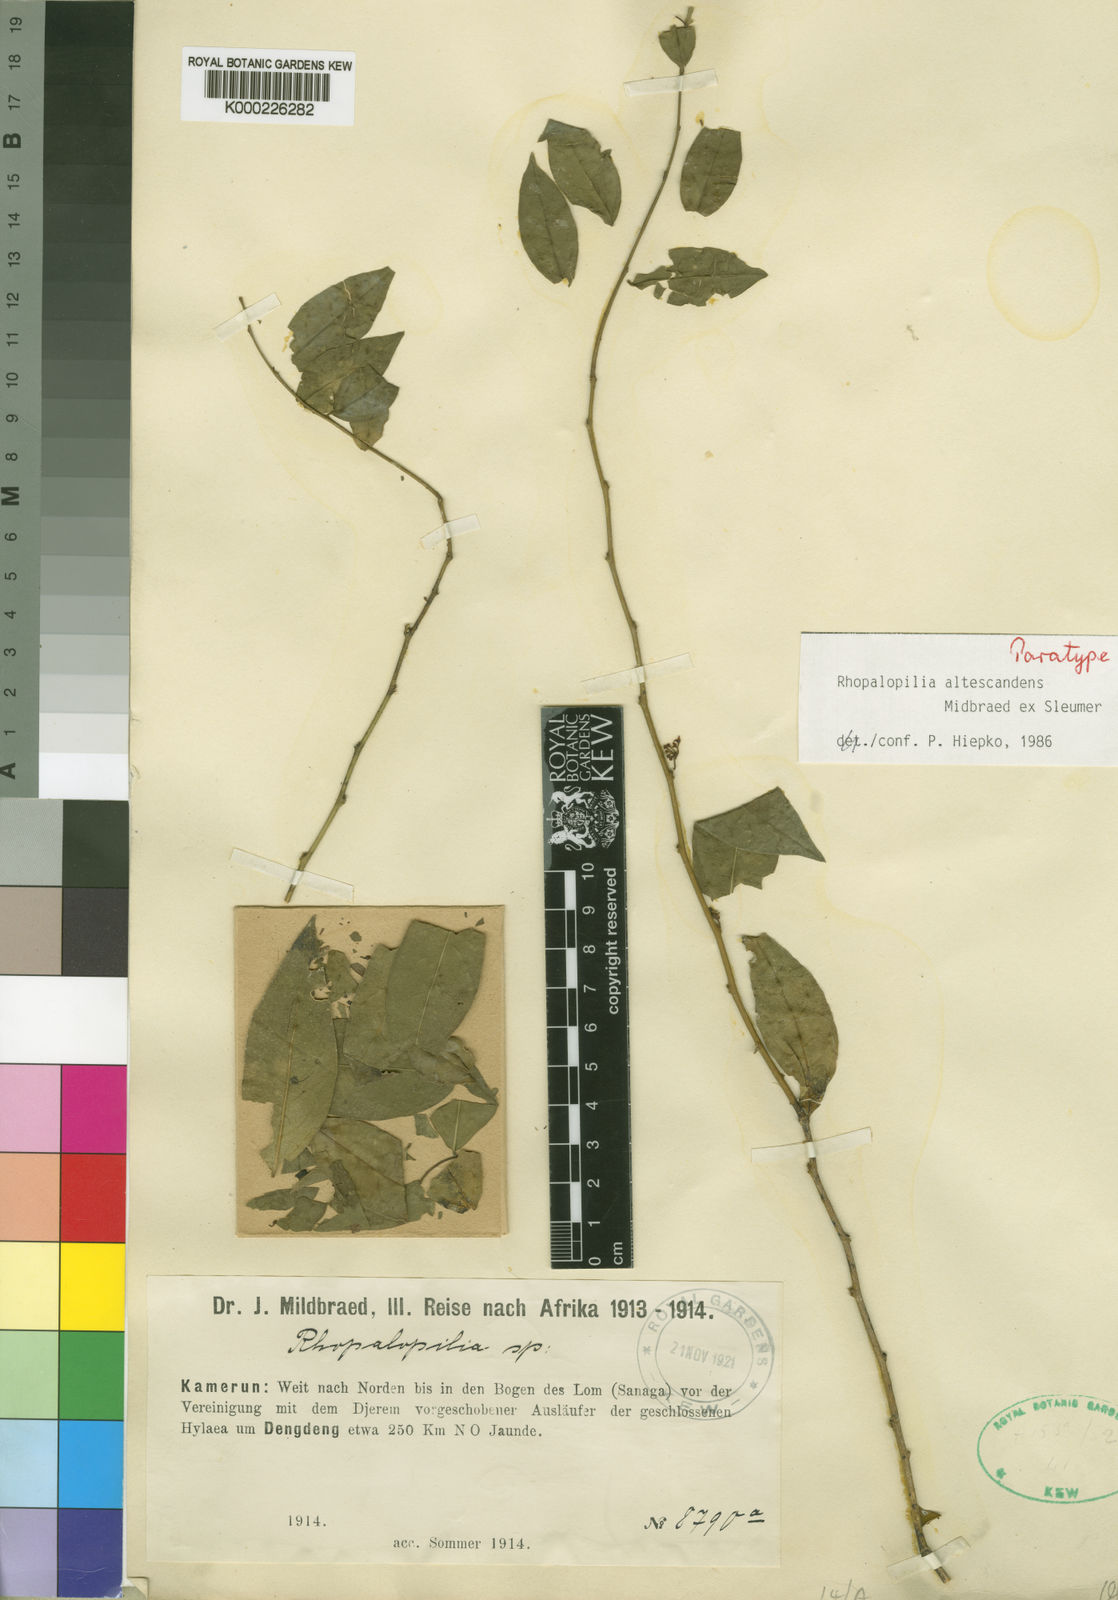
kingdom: Plantae
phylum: Tracheophyta
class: Magnoliopsida
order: Santalales
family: Opiliaceae
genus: Rhopalopilia
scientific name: Rhopalopilia altescandens
